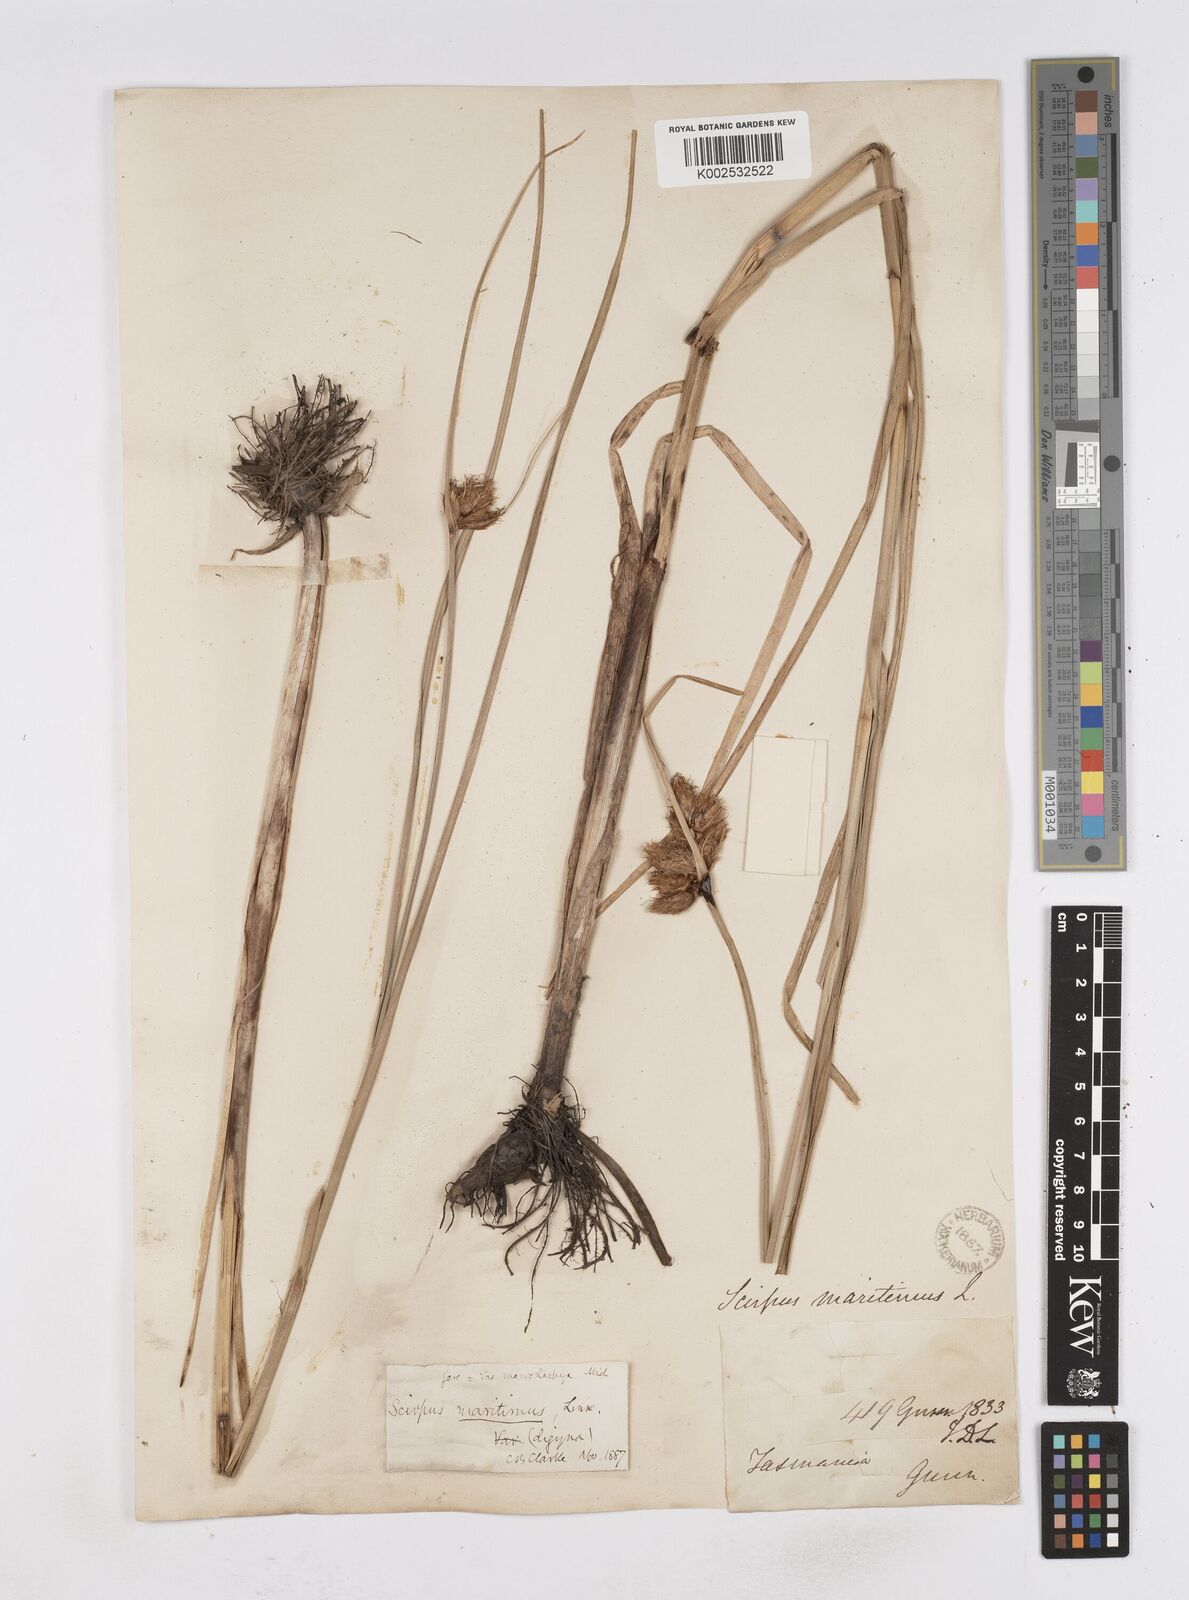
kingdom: Plantae
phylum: Tracheophyta
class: Liliopsida
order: Poales
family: Cyperaceae
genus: Bolboschoenus
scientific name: Bolboschoenus maritimus
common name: Sea club-rush
